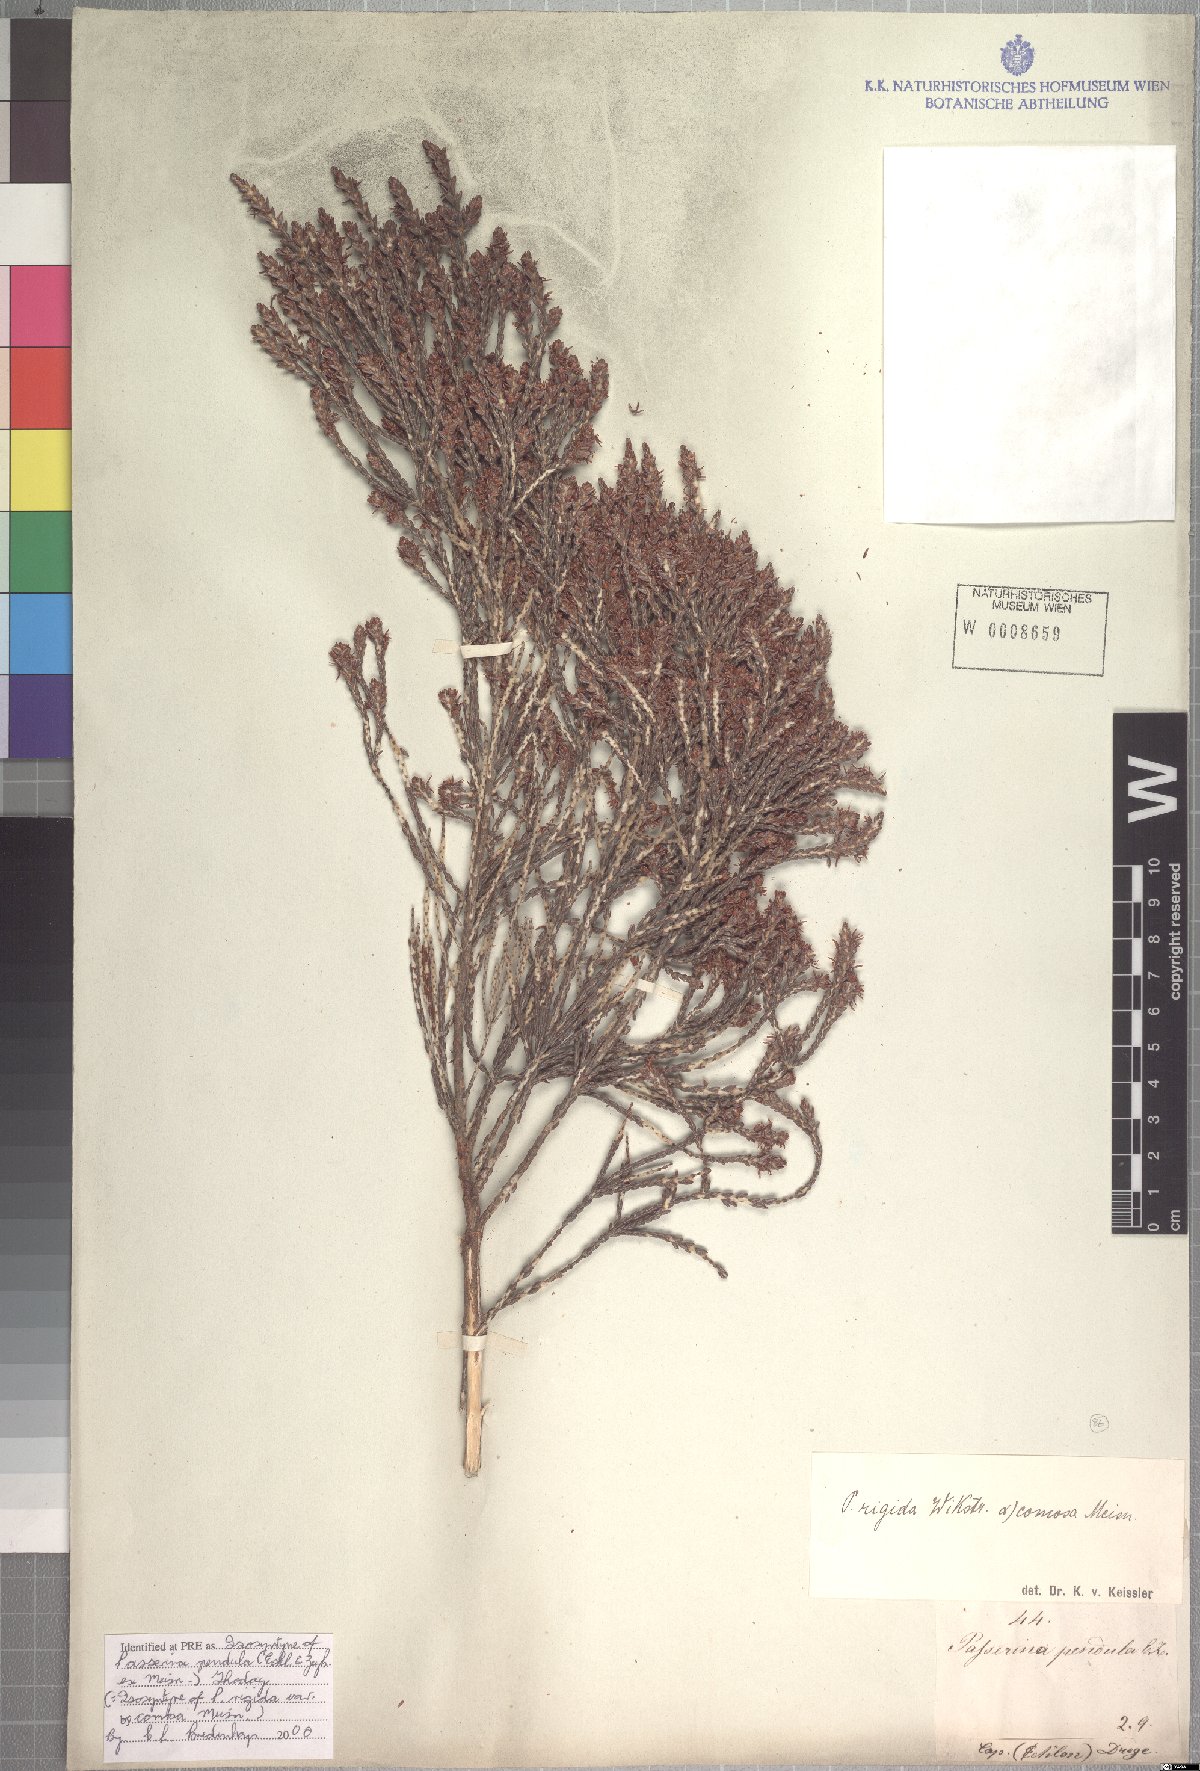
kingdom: Plantae
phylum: Tracheophyta
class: Magnoliopsida
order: Malvales
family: Thymelaeaceae
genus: Passerina
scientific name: Passerina pendula
